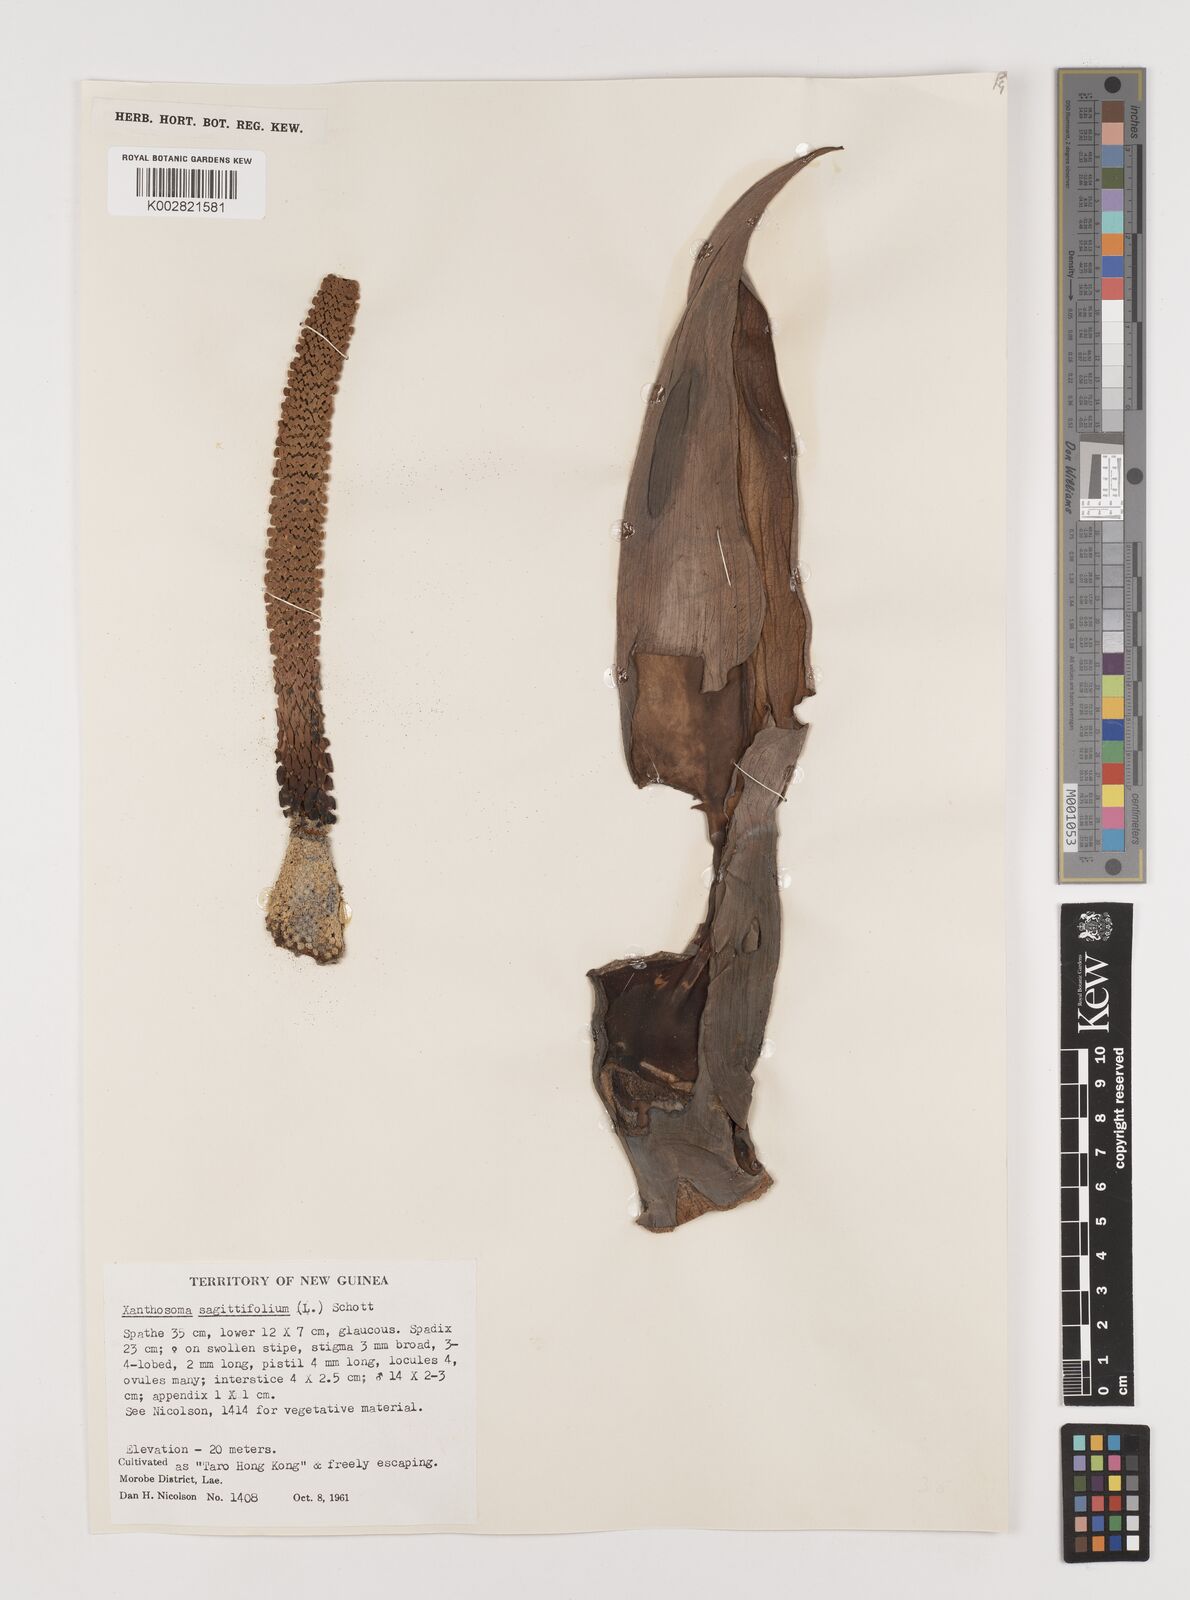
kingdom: Plantae
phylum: Tracheophyta
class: Liliopsida
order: Alismatales
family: Araceae
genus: Xanthosoma
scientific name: Xanthosoma sagittifolium
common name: Arrowleaf elephant's ear
